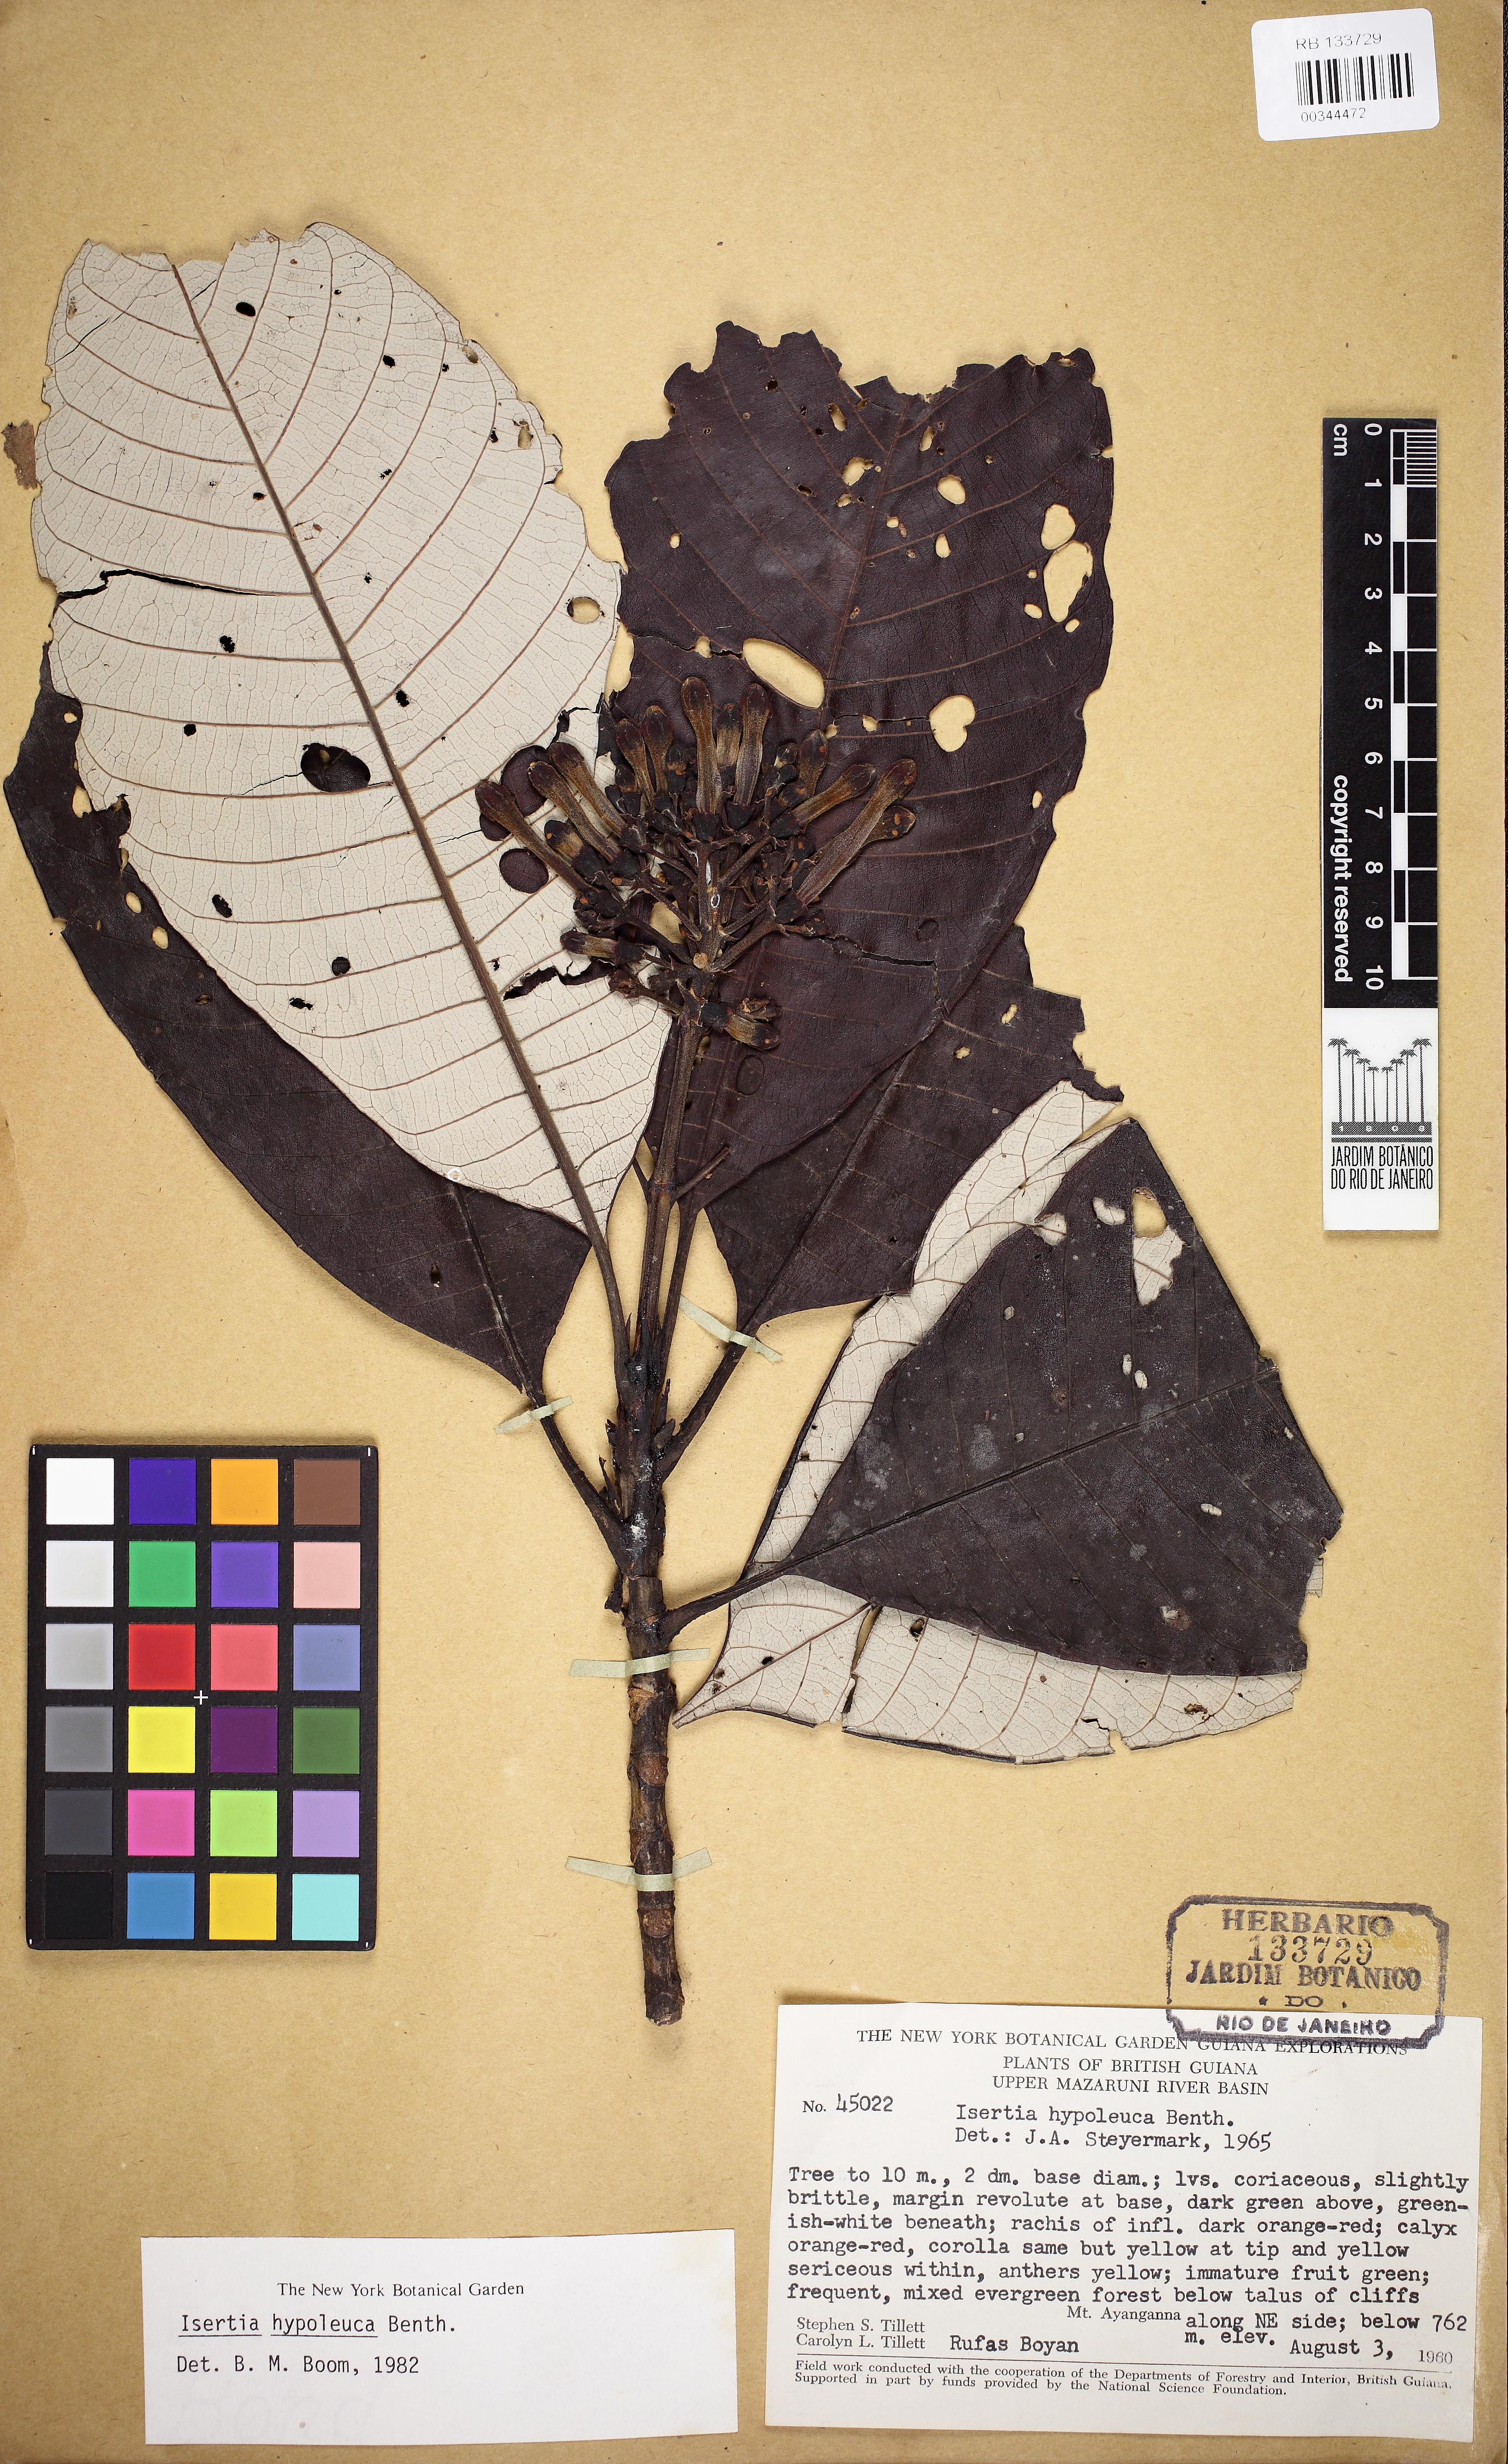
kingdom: Plantae
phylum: Tracheophyta
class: Magnoliopsida
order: Gentianales
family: Rubiaceae
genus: Isertia
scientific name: Isertia hypoleuca
